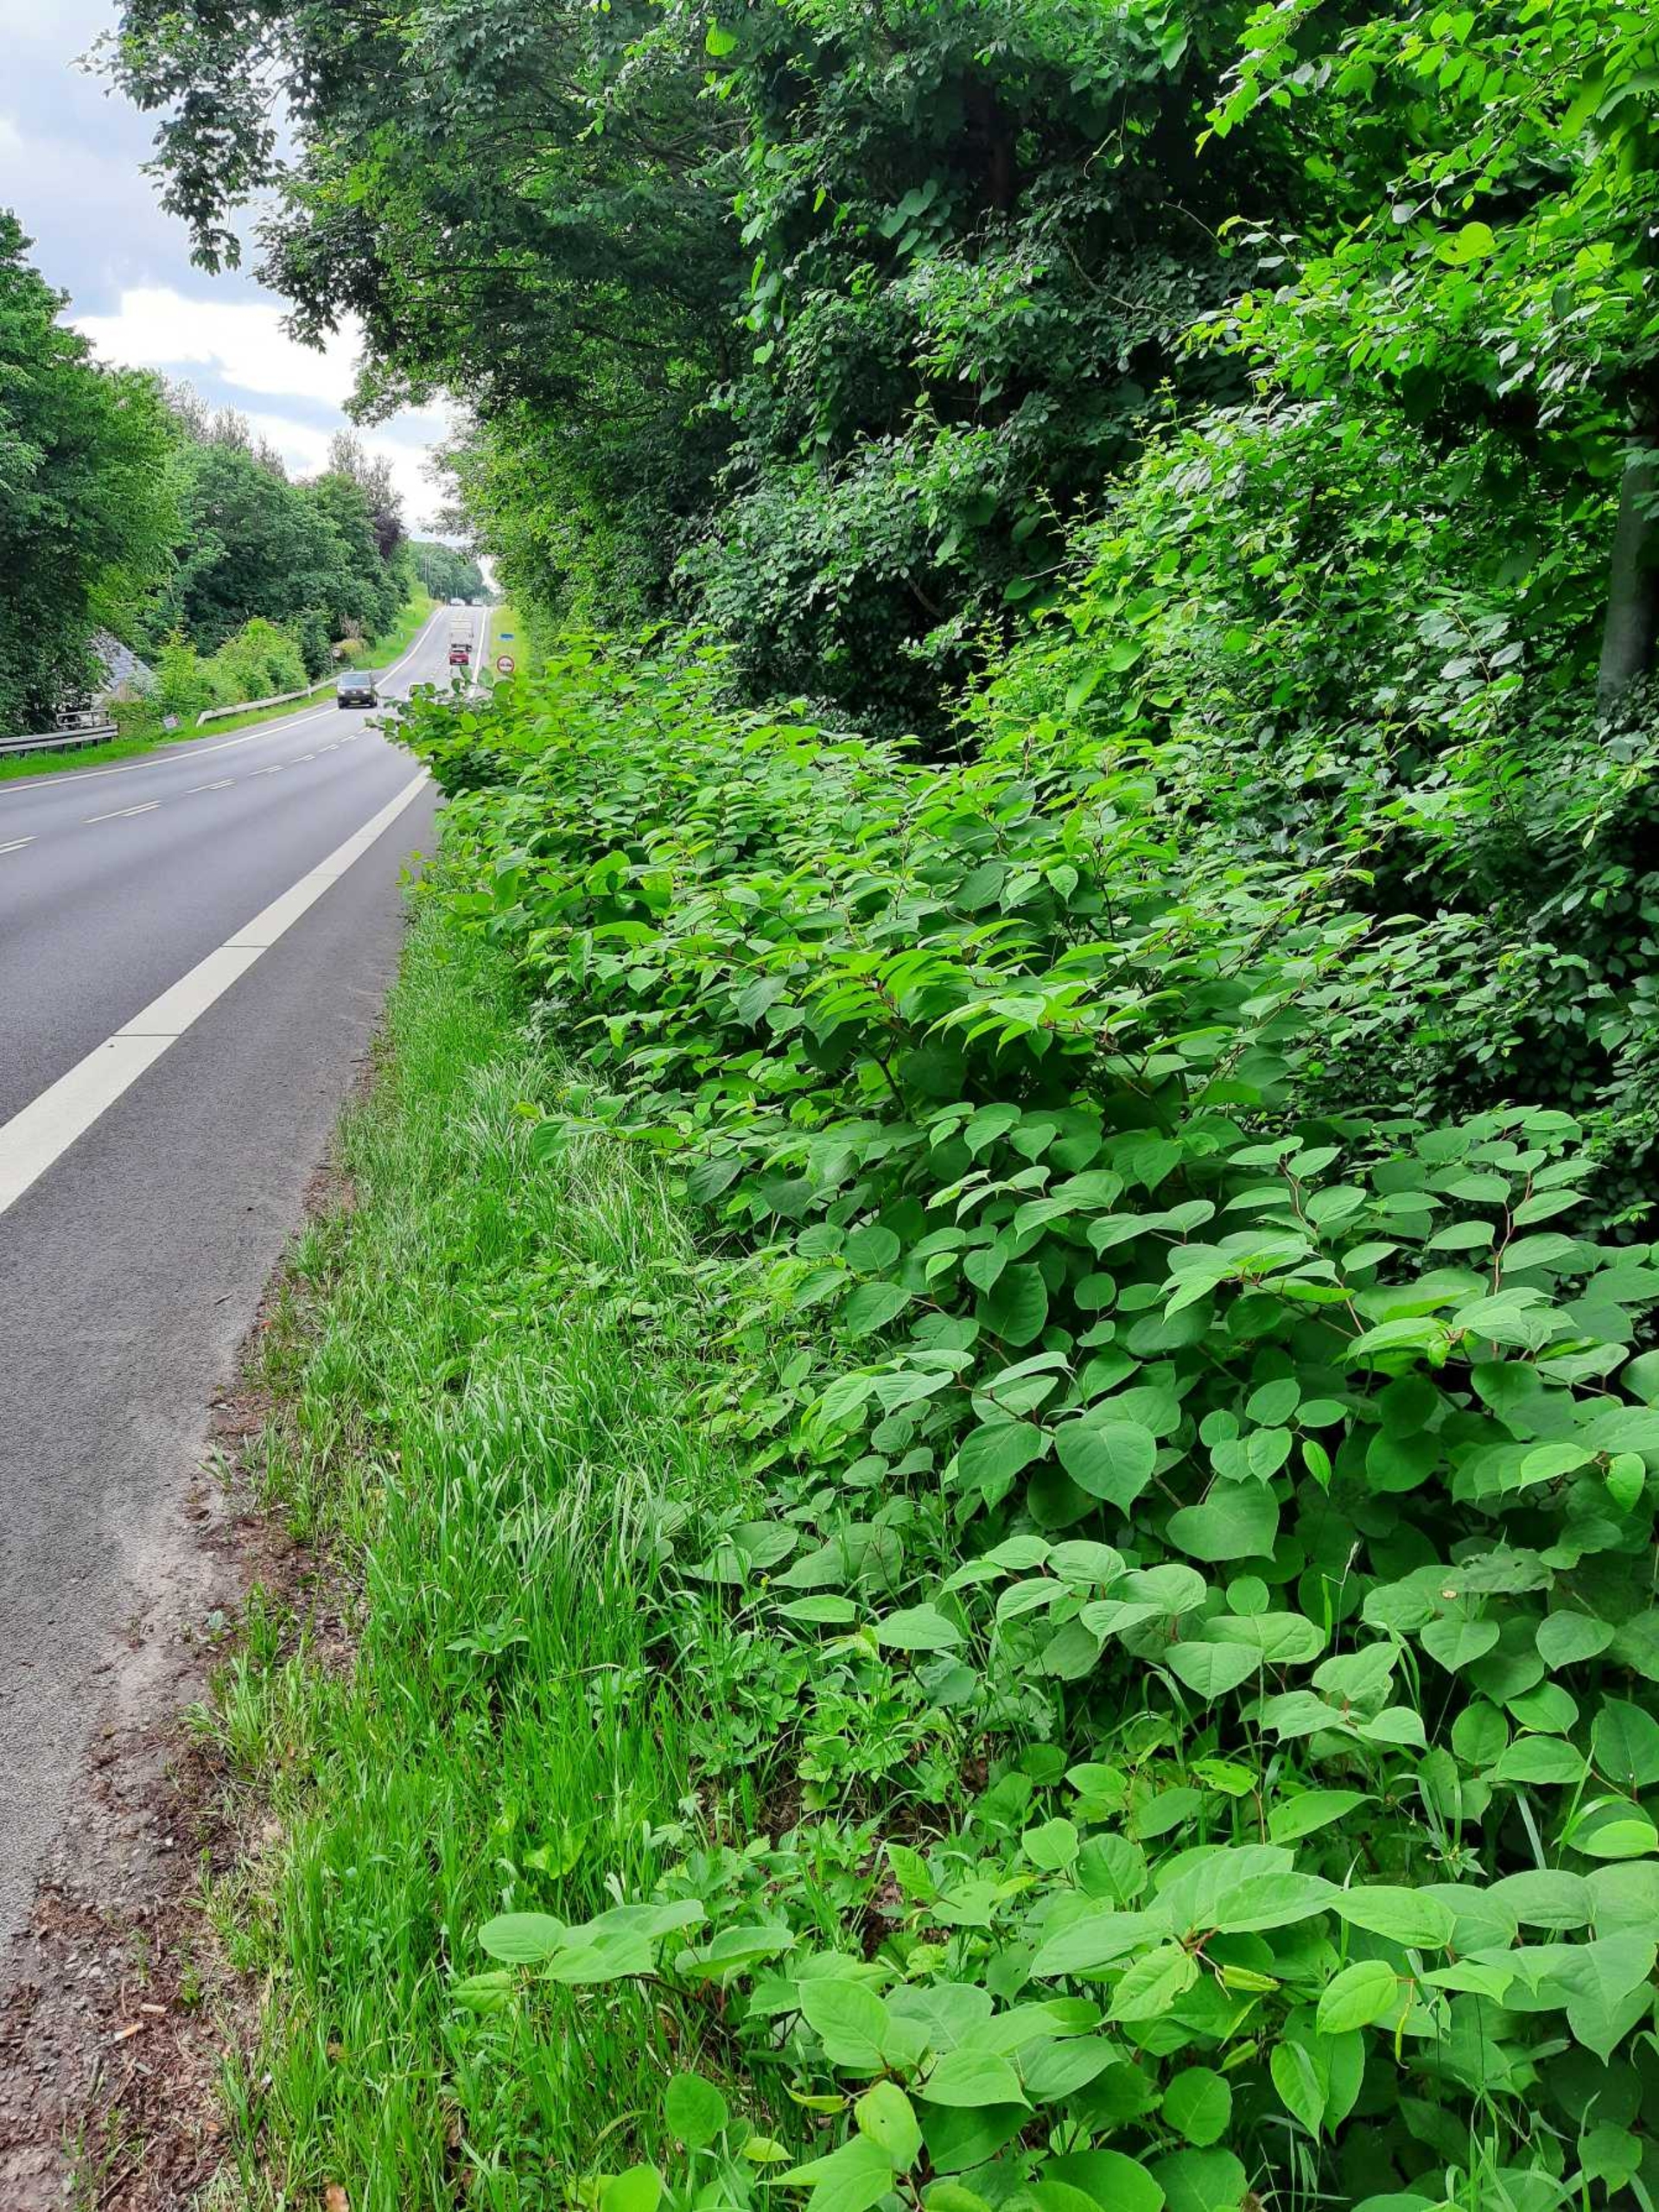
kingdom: Plantae
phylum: Tracheophyta
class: Magnoliopsida
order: Caryophyllales
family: Polygonaceae
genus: Reynoutria
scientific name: Reynoutria japonica
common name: Japan-pileurt
